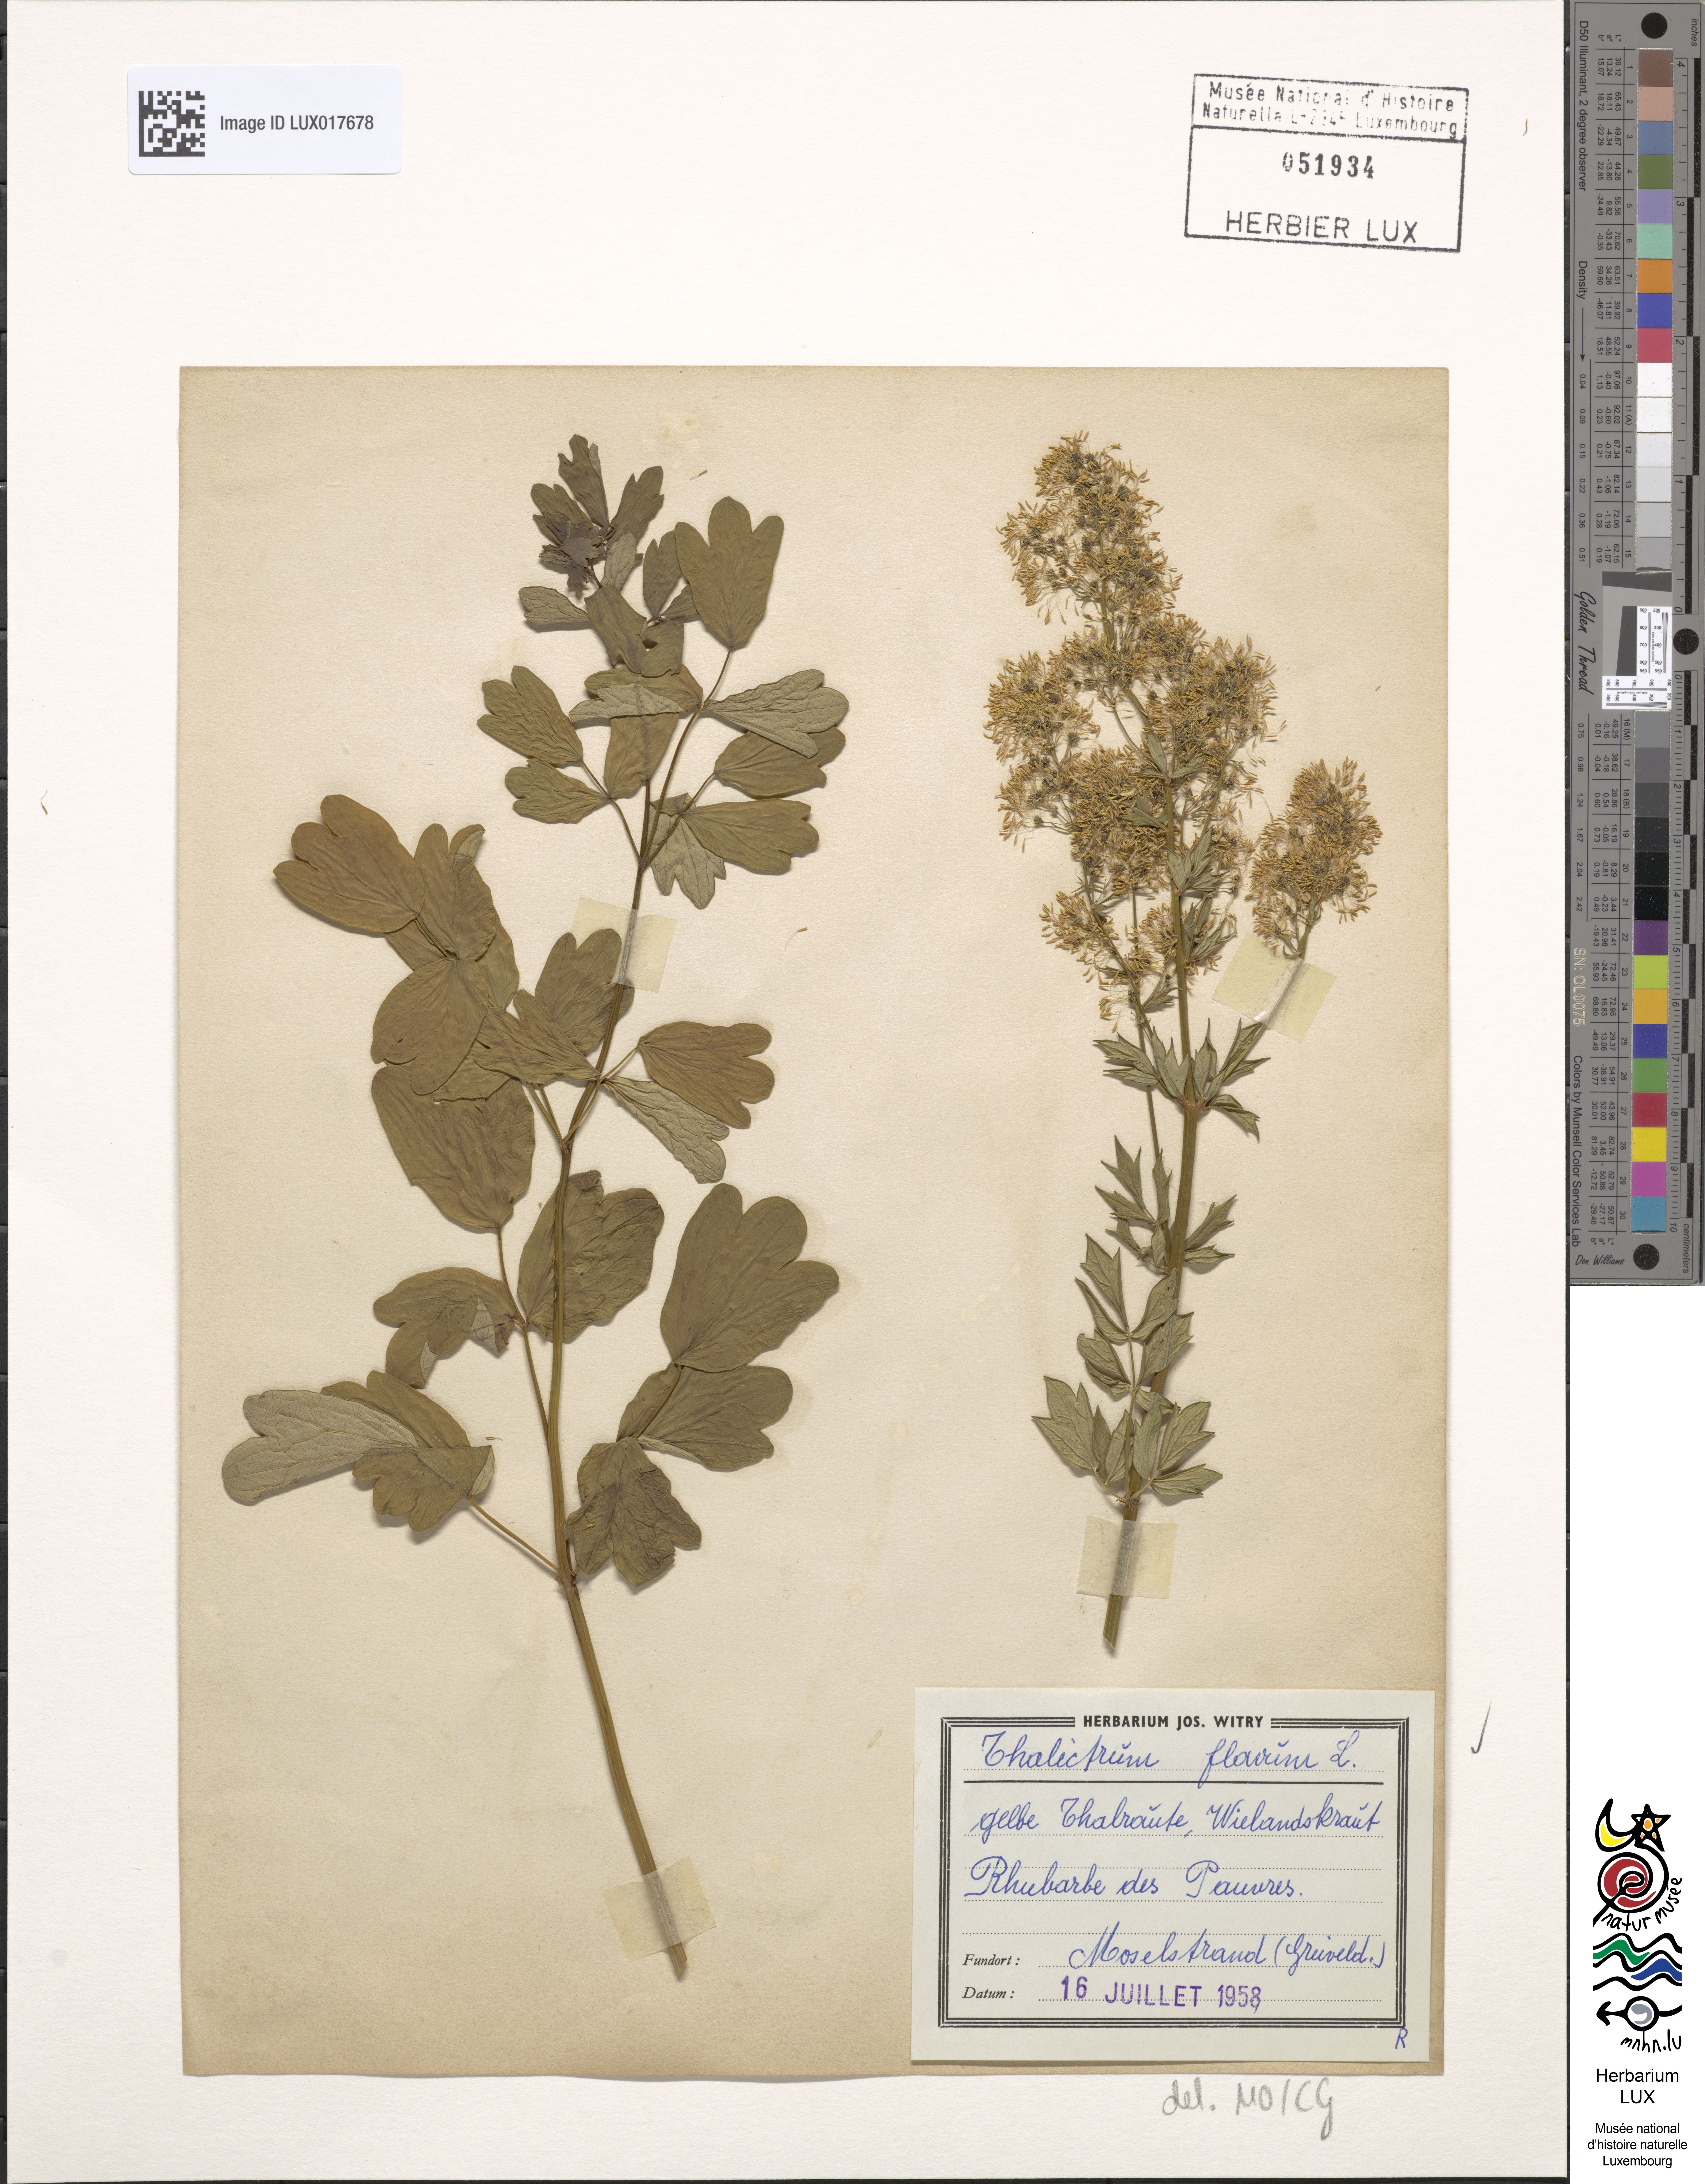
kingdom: Plantae
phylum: Tracheophyta
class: Magnoliopsida
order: Ranunculales
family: Ranunculaceae
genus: Thalictrum
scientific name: Thalictrum flavum
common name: Common meadow-rue
